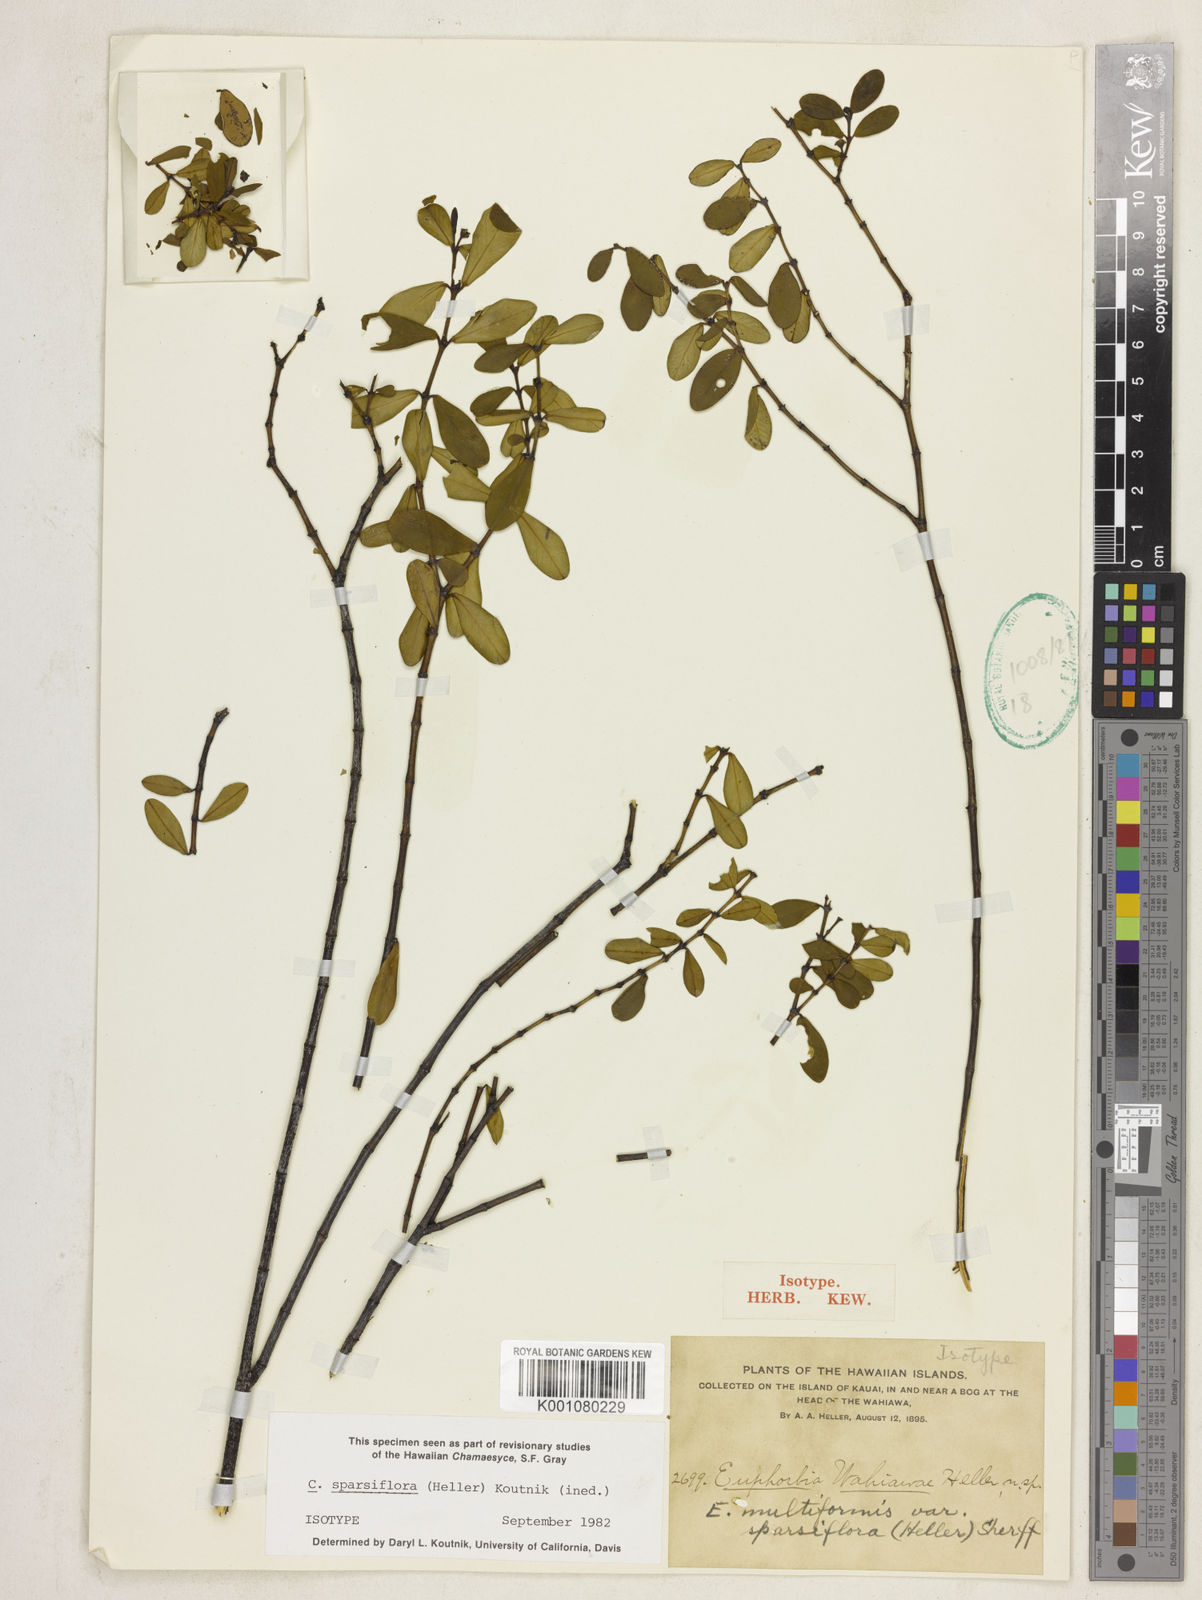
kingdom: Plantae
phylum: Tracheophyta
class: Magnoliopsida
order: Malpighiales
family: Euphorbiaceae
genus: Euphorbia
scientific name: Euphorbia multiformis
